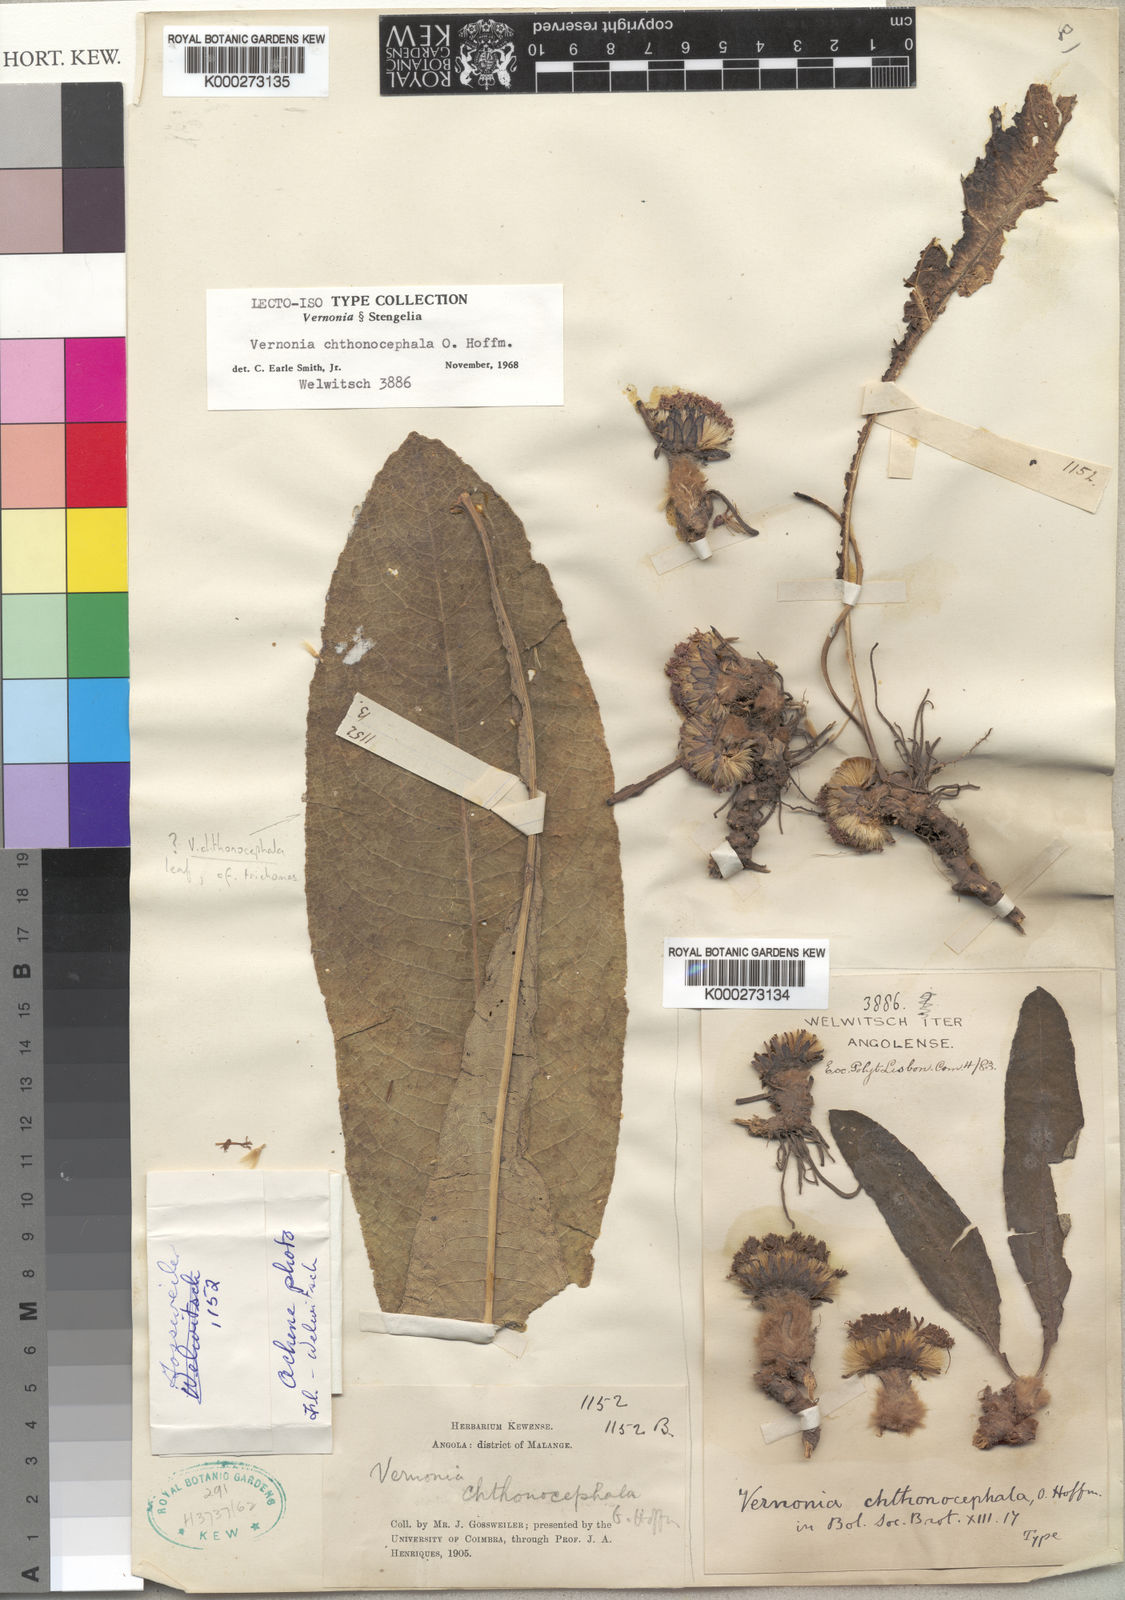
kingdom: Plantae
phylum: Tracheophyta
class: Magnoliopsida
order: Asterales
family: Asteraceae
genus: Vernonella
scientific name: Vernonella chthonocephala
